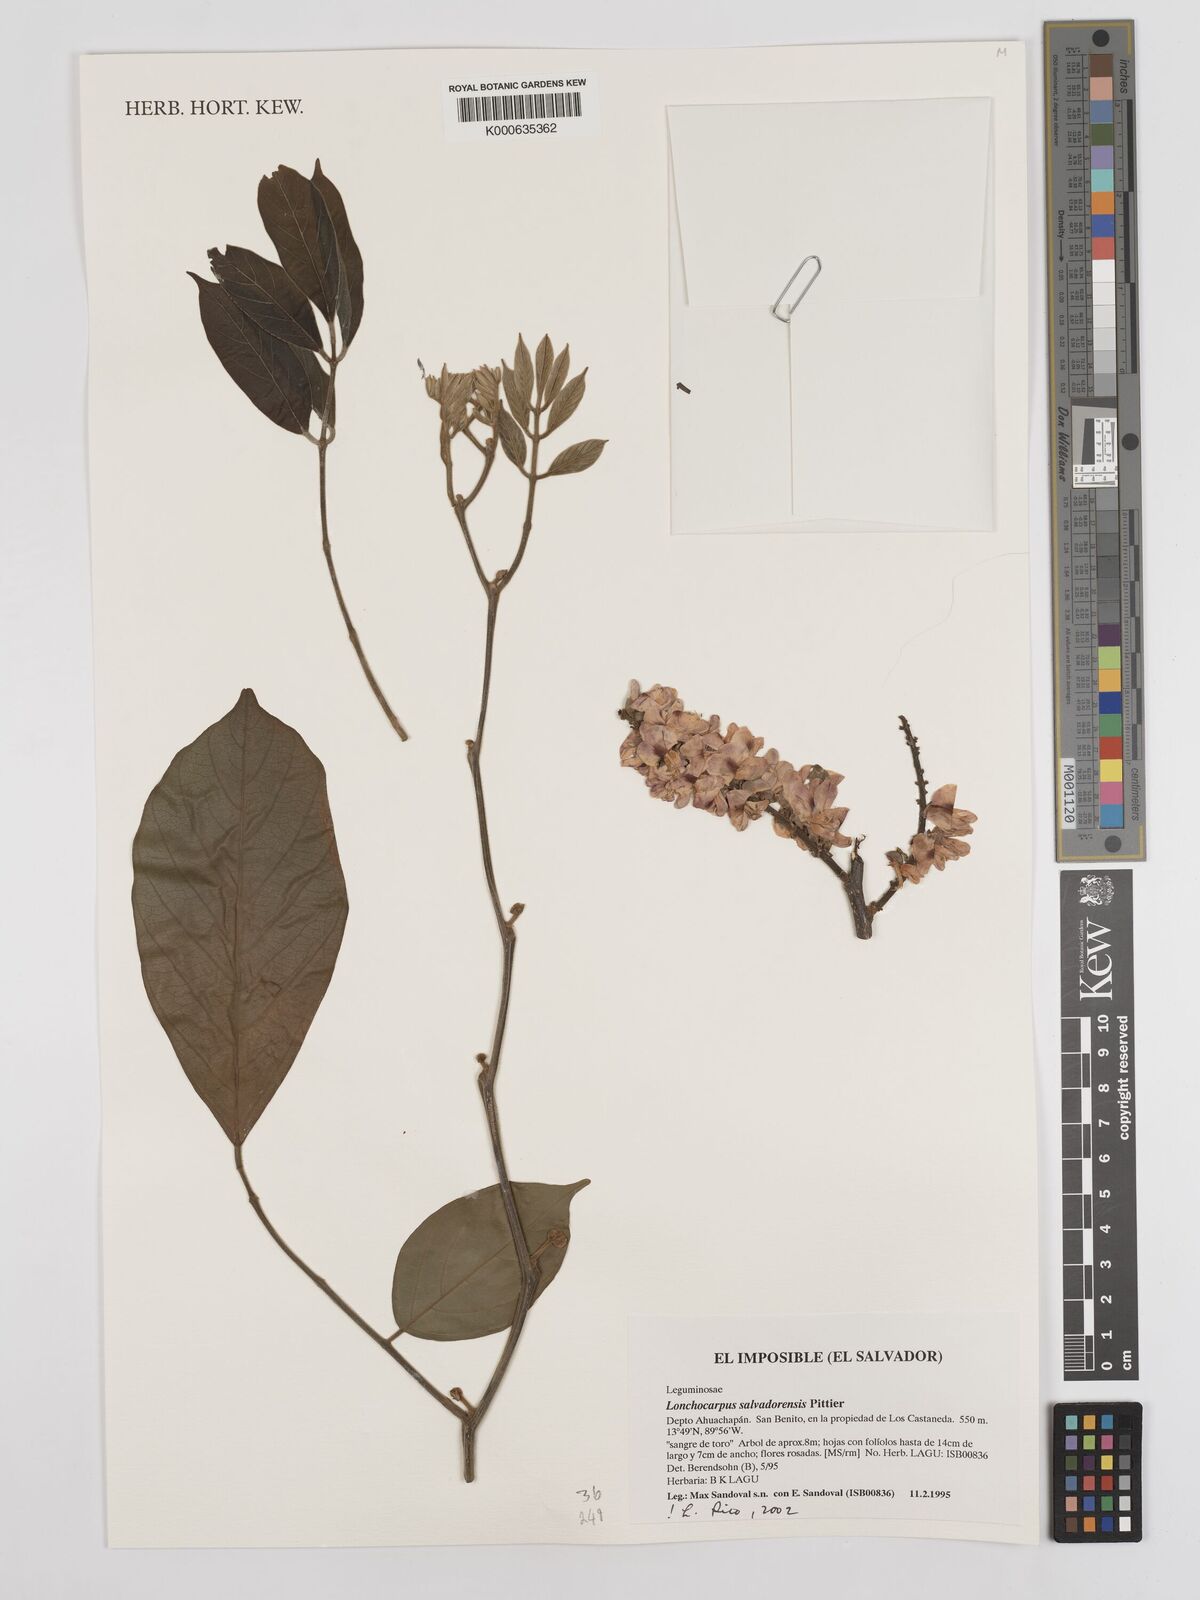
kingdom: Plantae
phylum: Tracheophyta
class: Magnoliopsida
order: Fabales
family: Fabaceae
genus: Lonchocarpus
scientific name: Lonchocarpus salvadorensis
